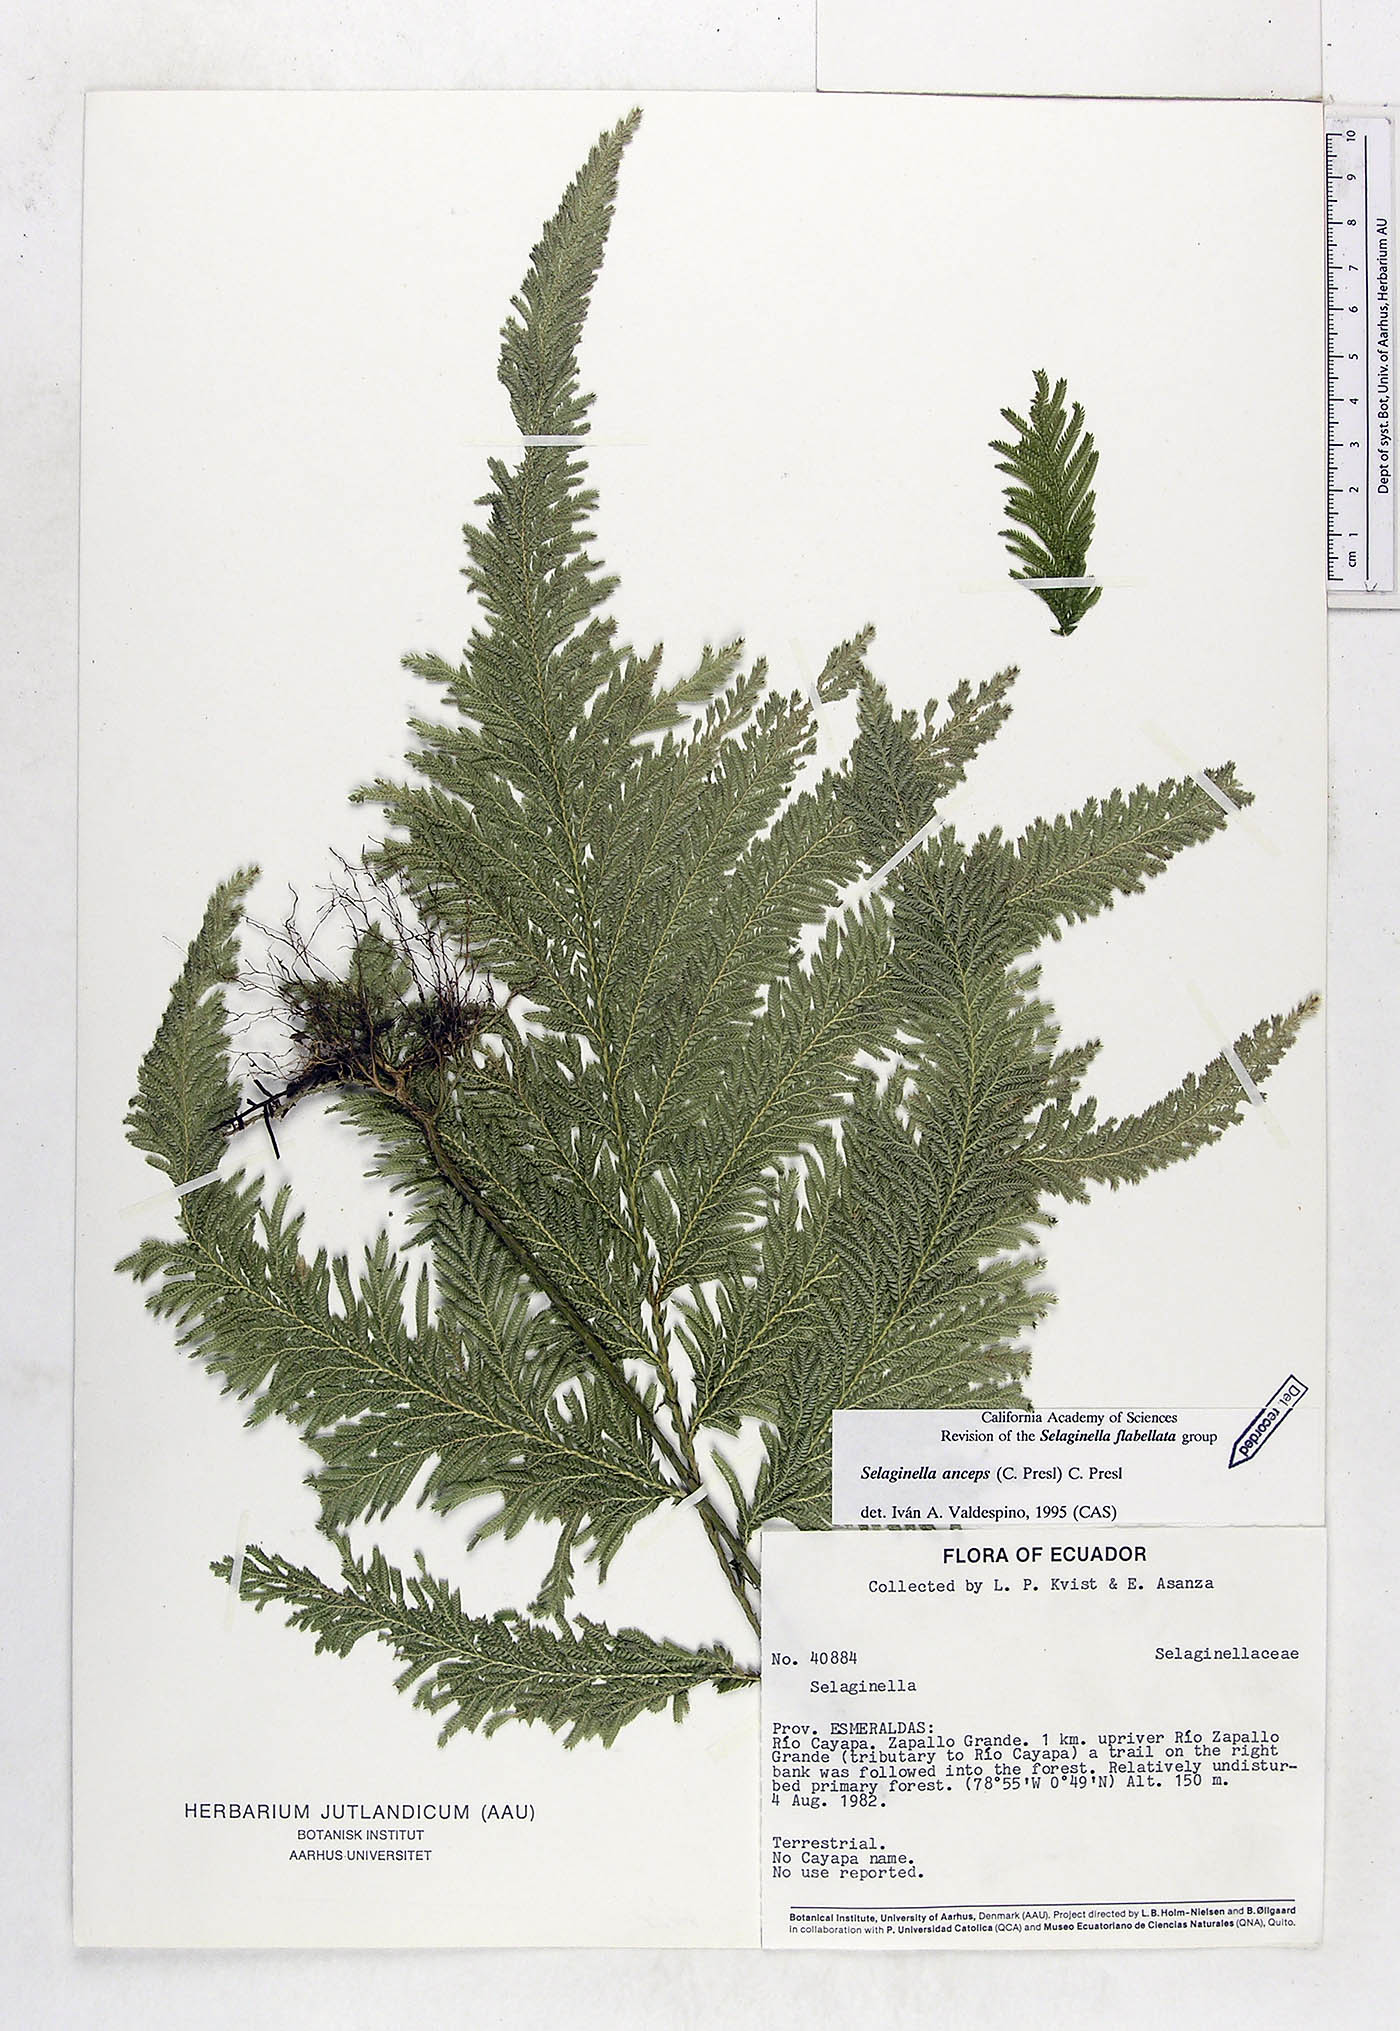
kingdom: Plantae
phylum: Tracheophyta
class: Lycopodiopsida
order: Selaginellales
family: Selaginellaceae
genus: Selaginella
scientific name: Selaginella anceps
